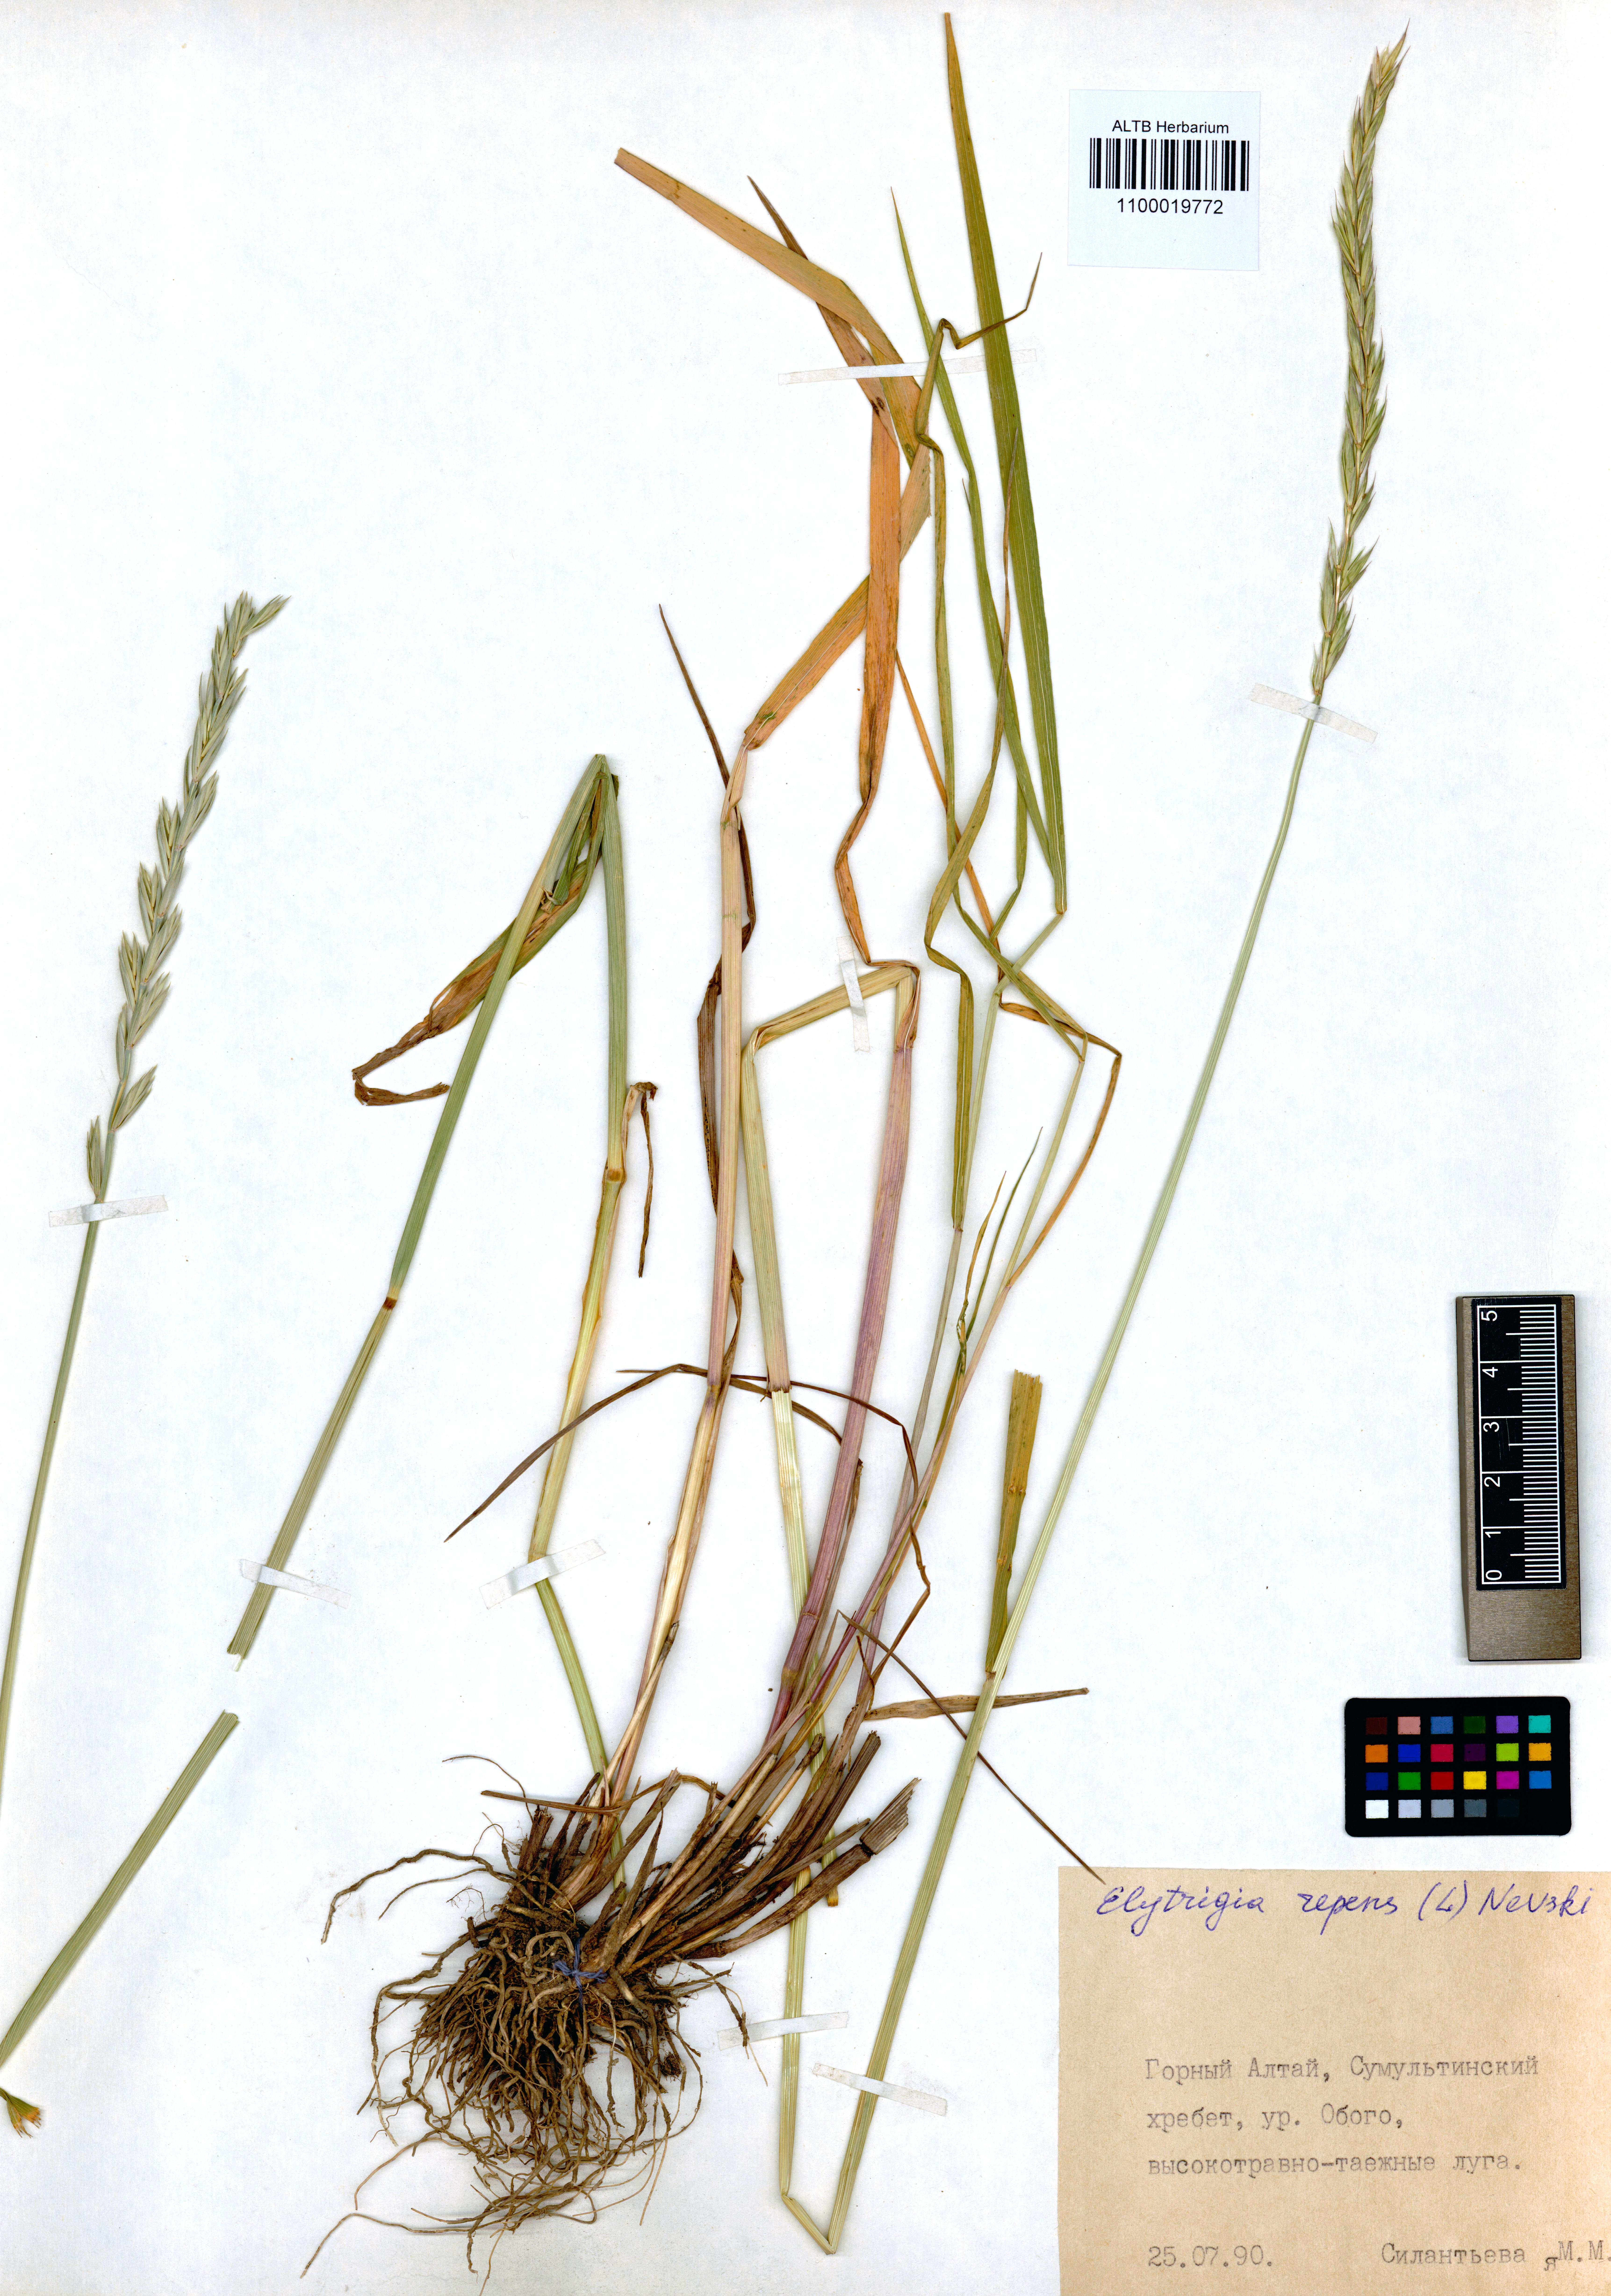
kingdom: Plantae
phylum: Tracheophyta
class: Liliopsida
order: Poales
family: Poaceae
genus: Elymus
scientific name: Elymus repens
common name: Quackgrass
